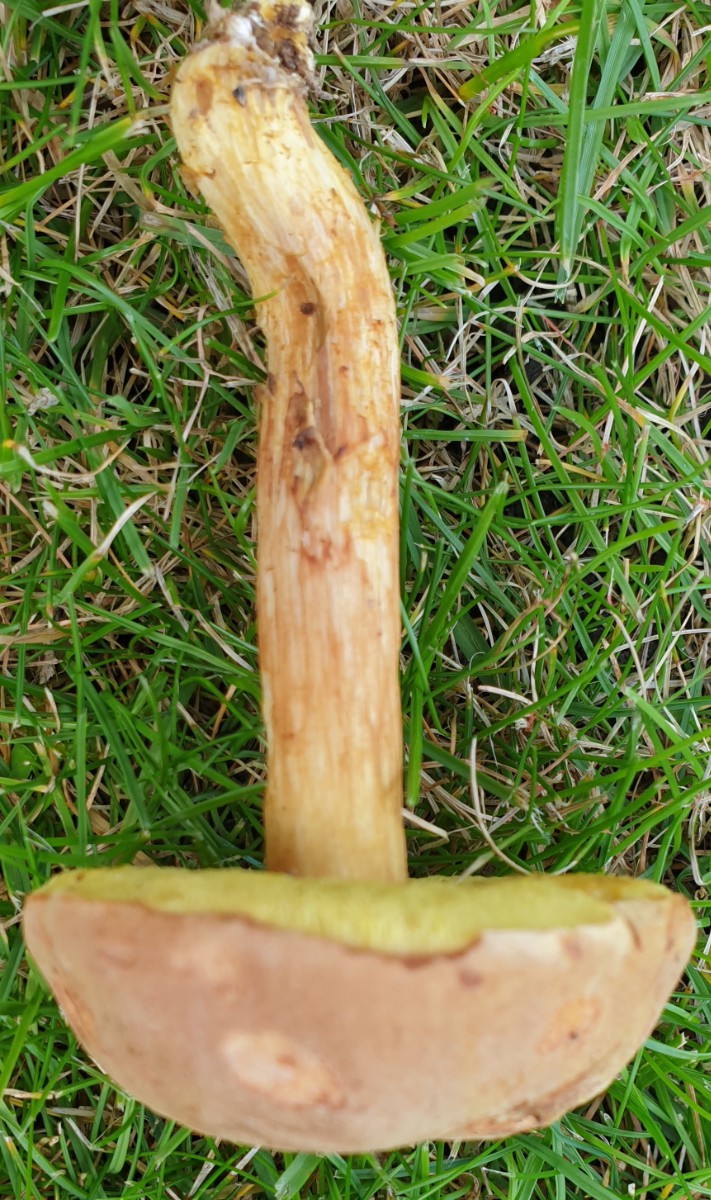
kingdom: Fungi
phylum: Basidiomycota
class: Agaricomycetes
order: Boletales
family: Boletaceae
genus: Xerocomus
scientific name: Xerocomus ferrugineus
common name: vaskeskinds-rørhat
